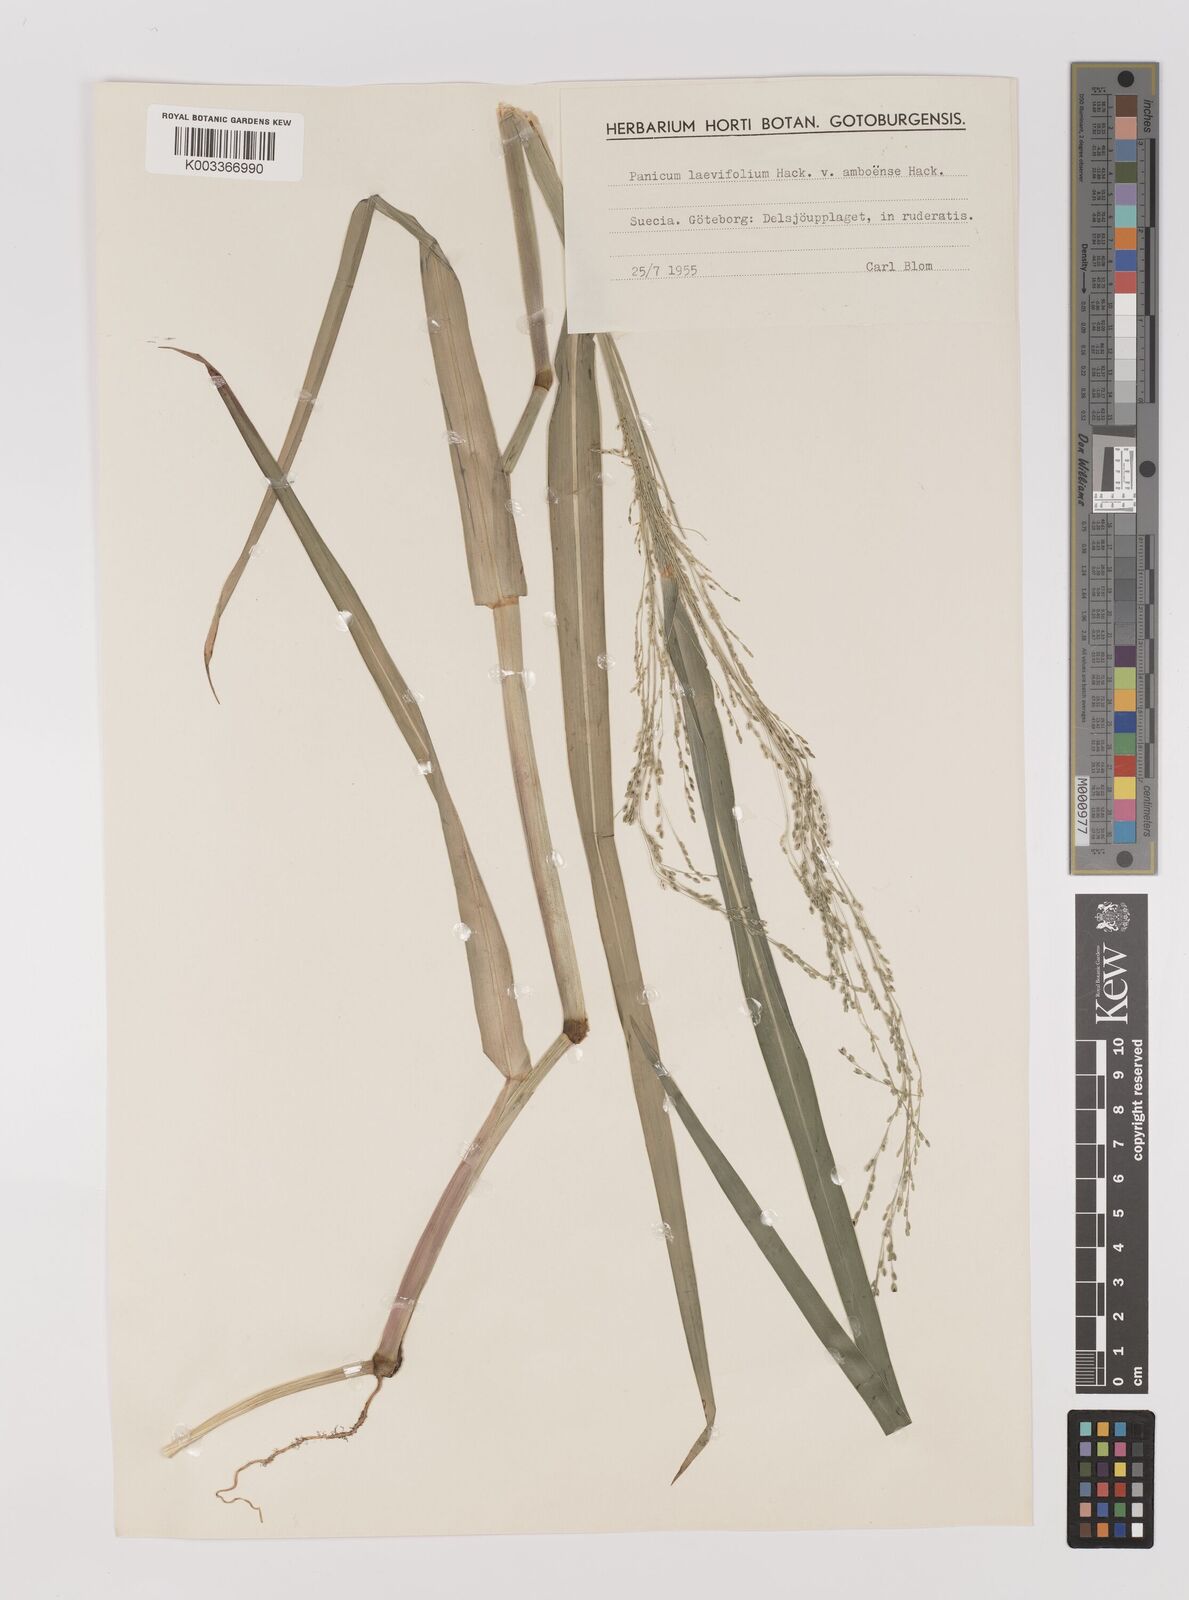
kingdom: Plantae
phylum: Tracheophyta
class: Liliopsida
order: Poales
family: Poaceae
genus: Panicum
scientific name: Panicum schinzii
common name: Sweet grass
